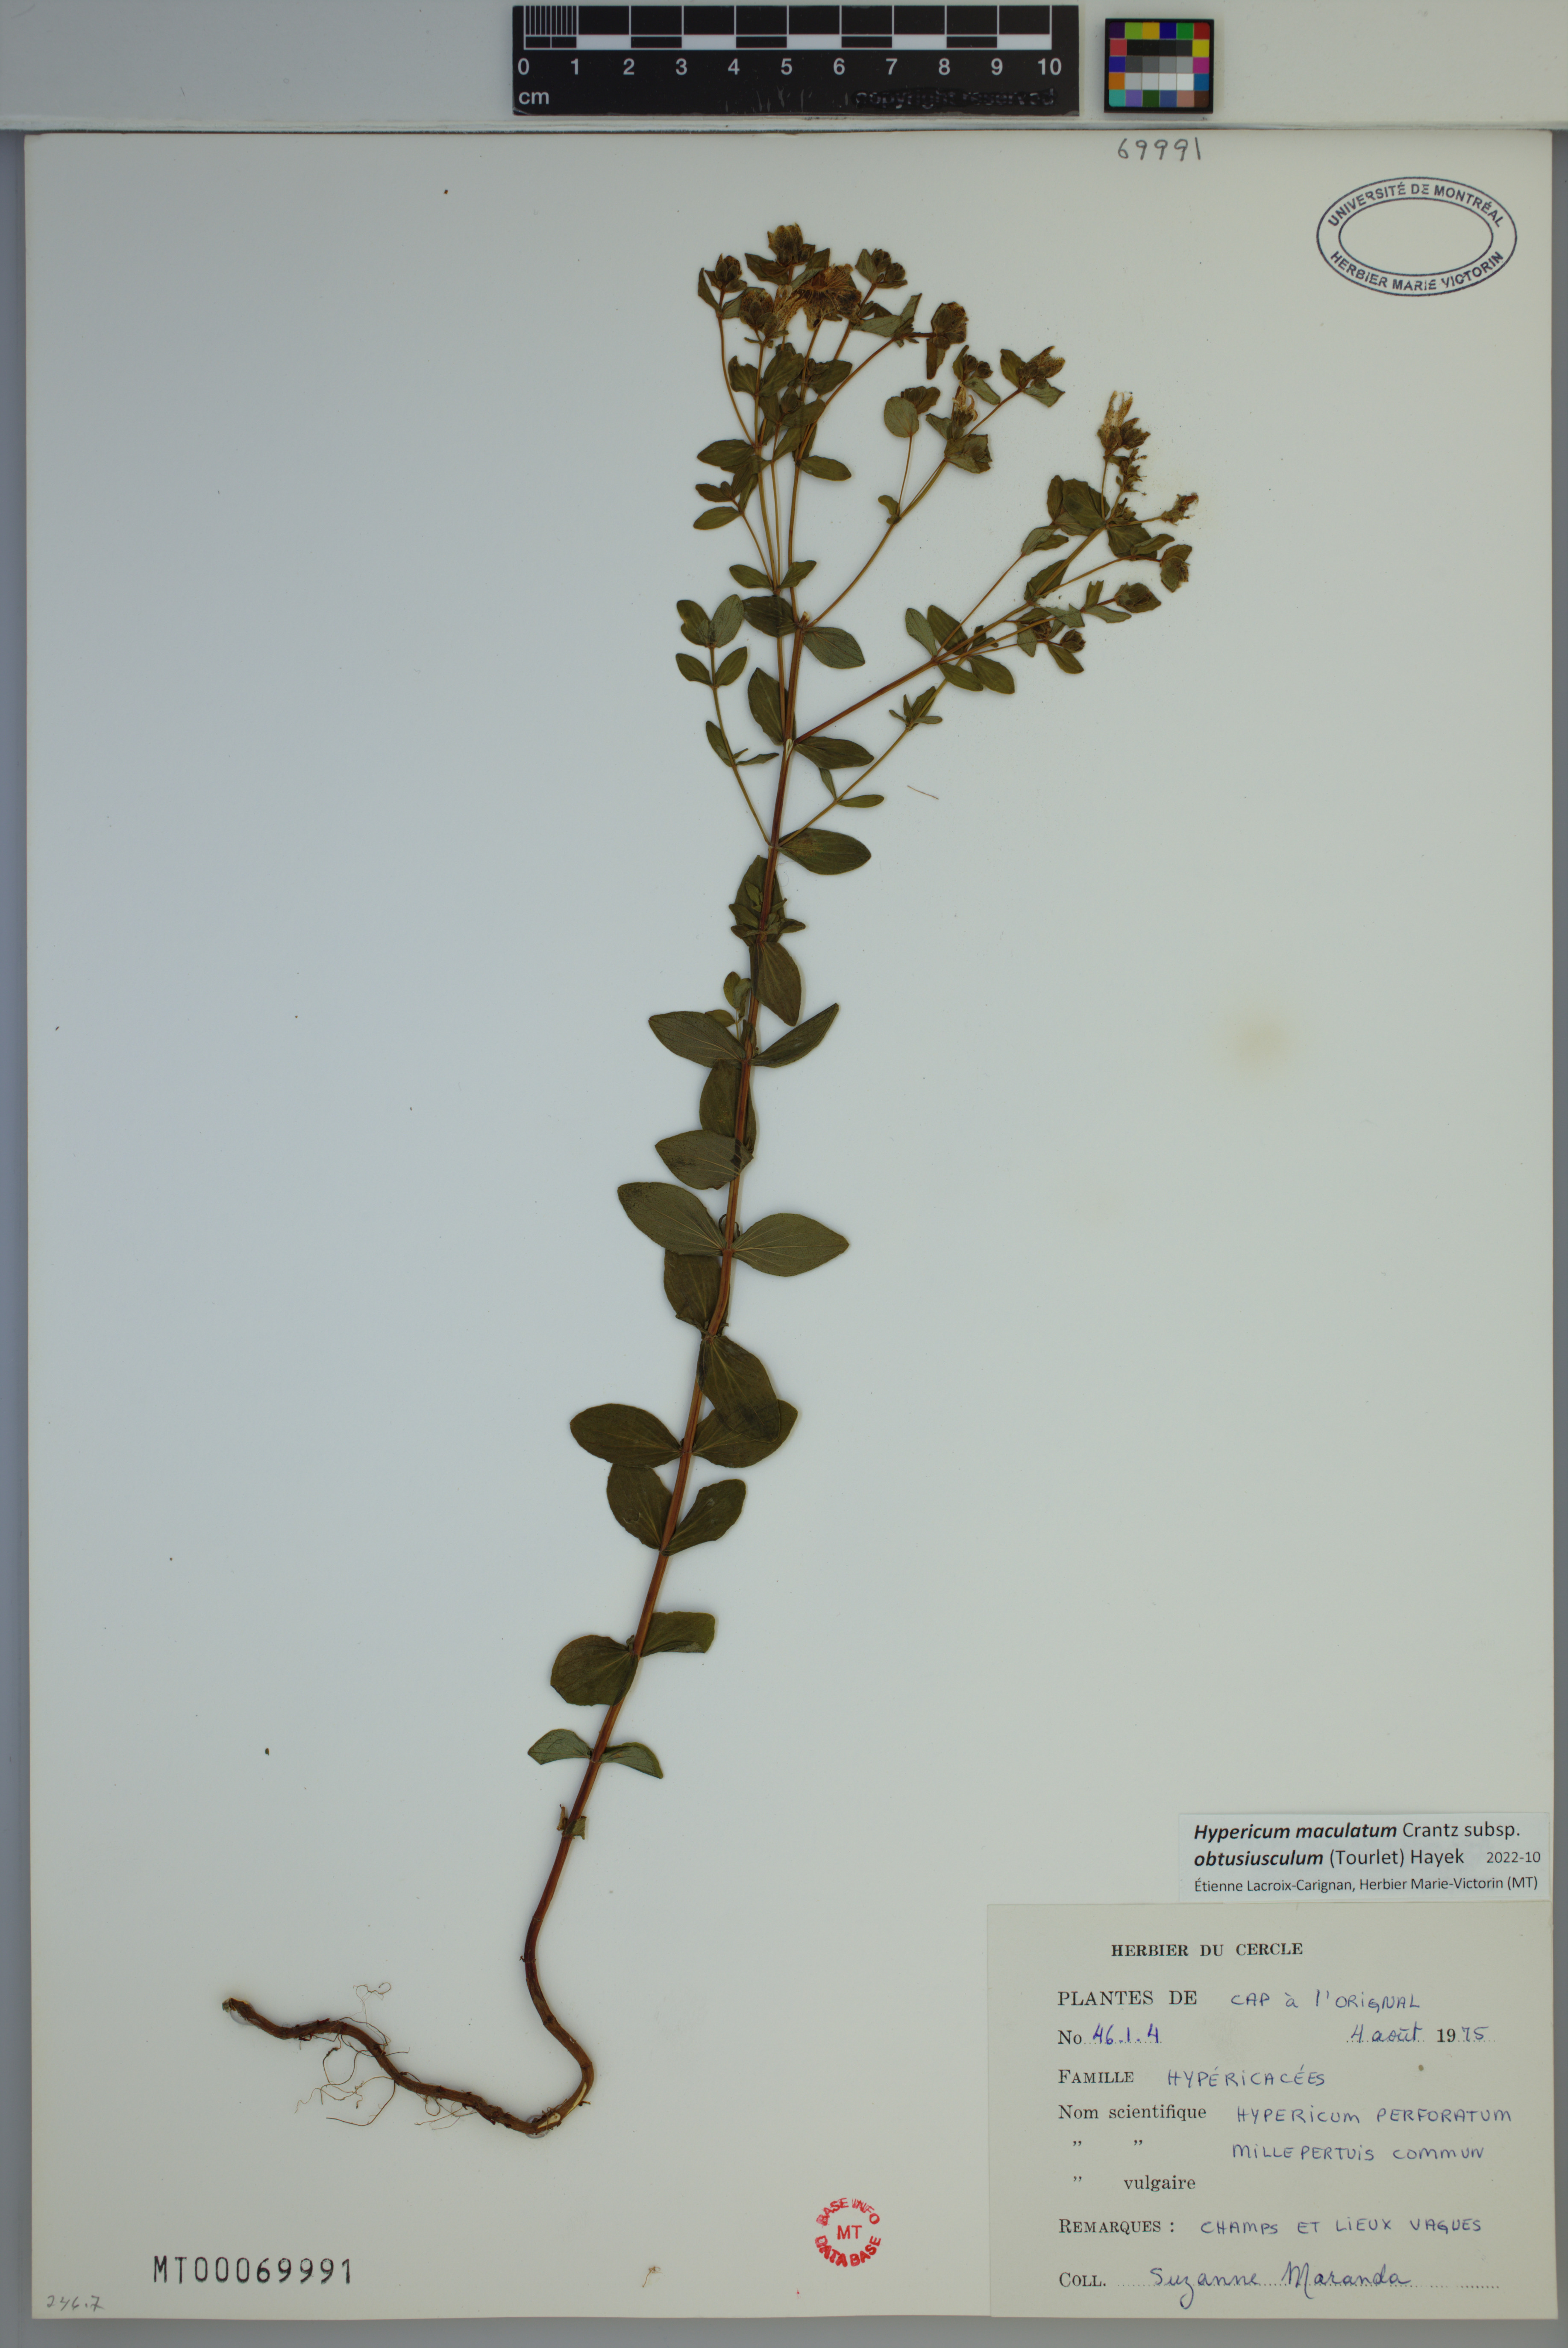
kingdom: Plantae
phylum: Tracheophyta
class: Magnoliopsida
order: Malpighiales
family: Hypericaceae
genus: Hypericum
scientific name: Hypericum dubium
